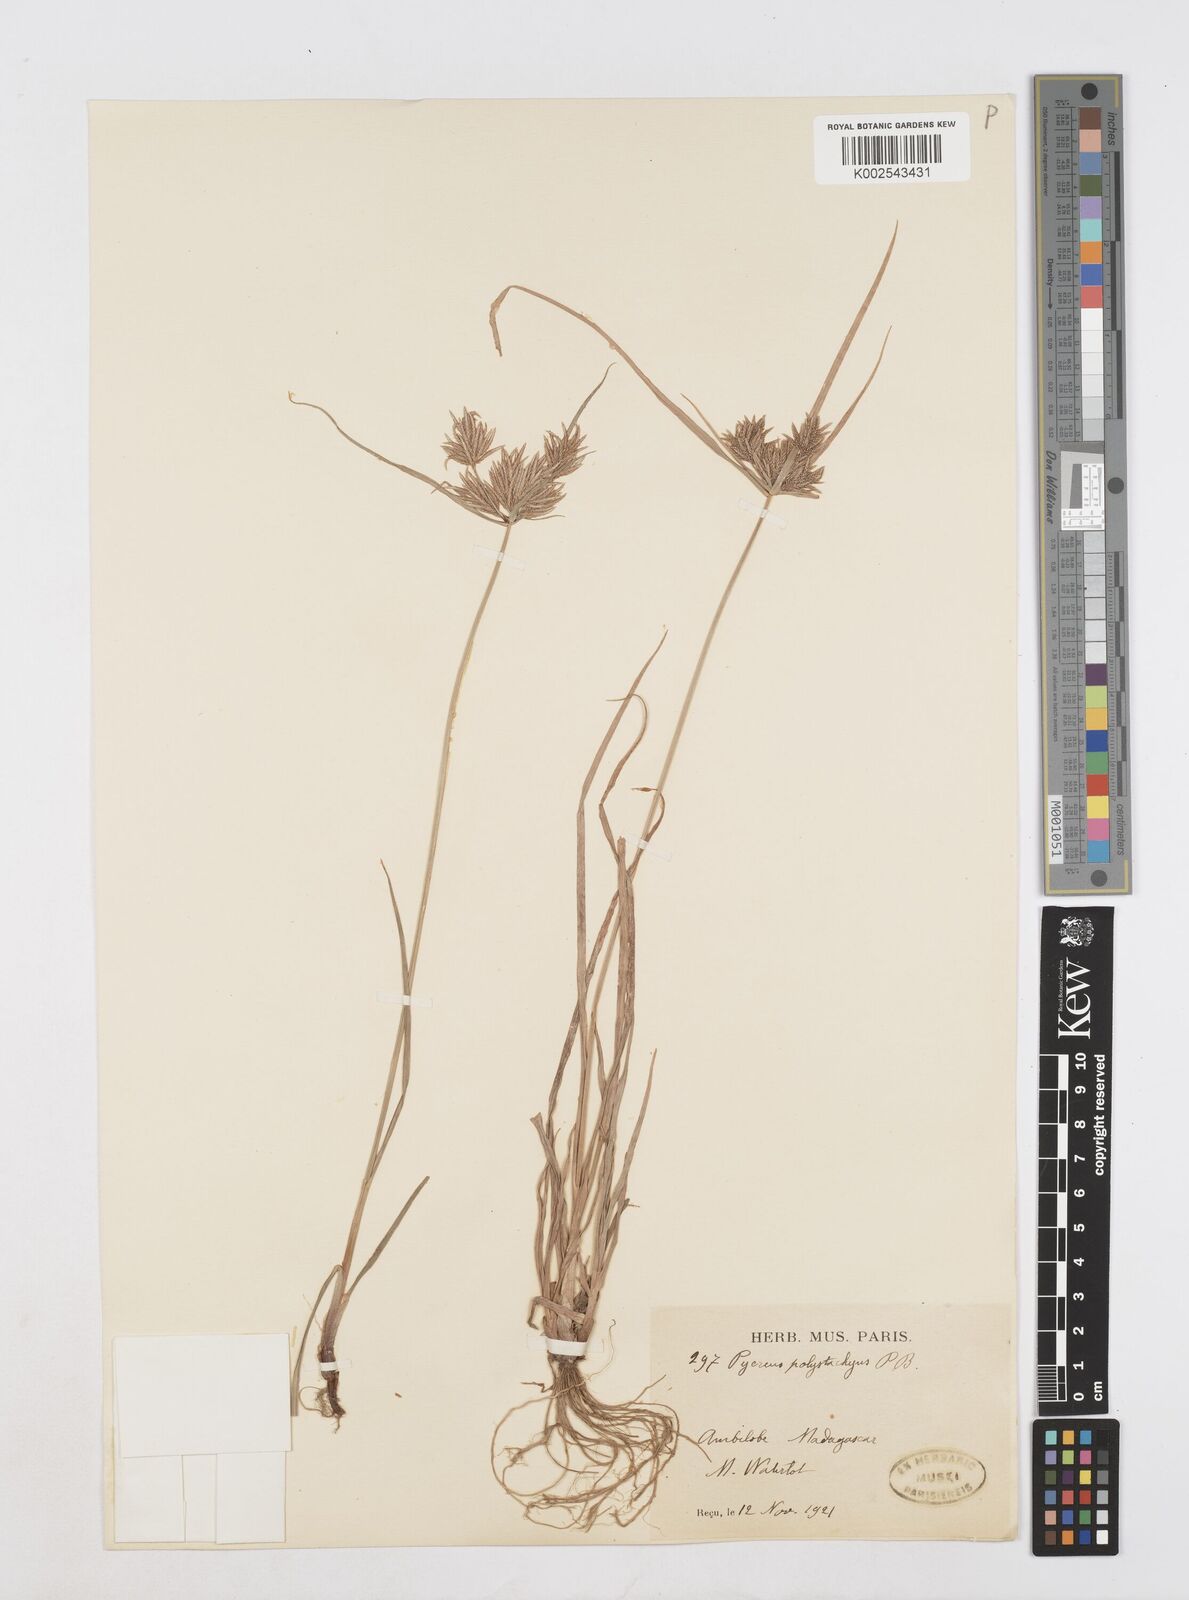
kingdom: Plantae
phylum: Tracheophyta
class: Liliopsida
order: Poales
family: Cyperaceae
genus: Cyperus
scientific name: Cyperus polystachyos
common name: Bunchy flat sedge
